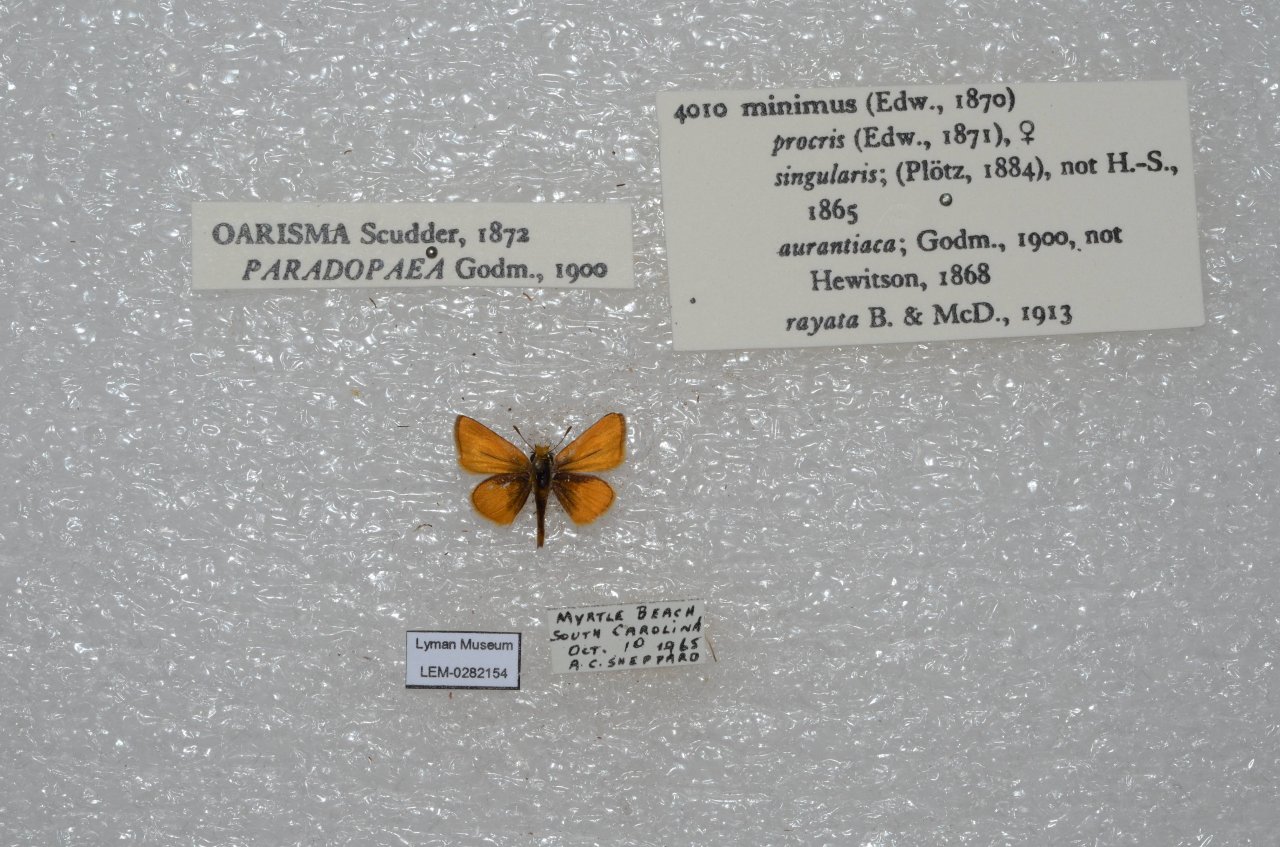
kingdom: Animalia
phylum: Arthropoda
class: Insecta
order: Lepidoptera
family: Hesperiidae
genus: Copaeodes
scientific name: Copaeodes minima
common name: Southern Skipperling
